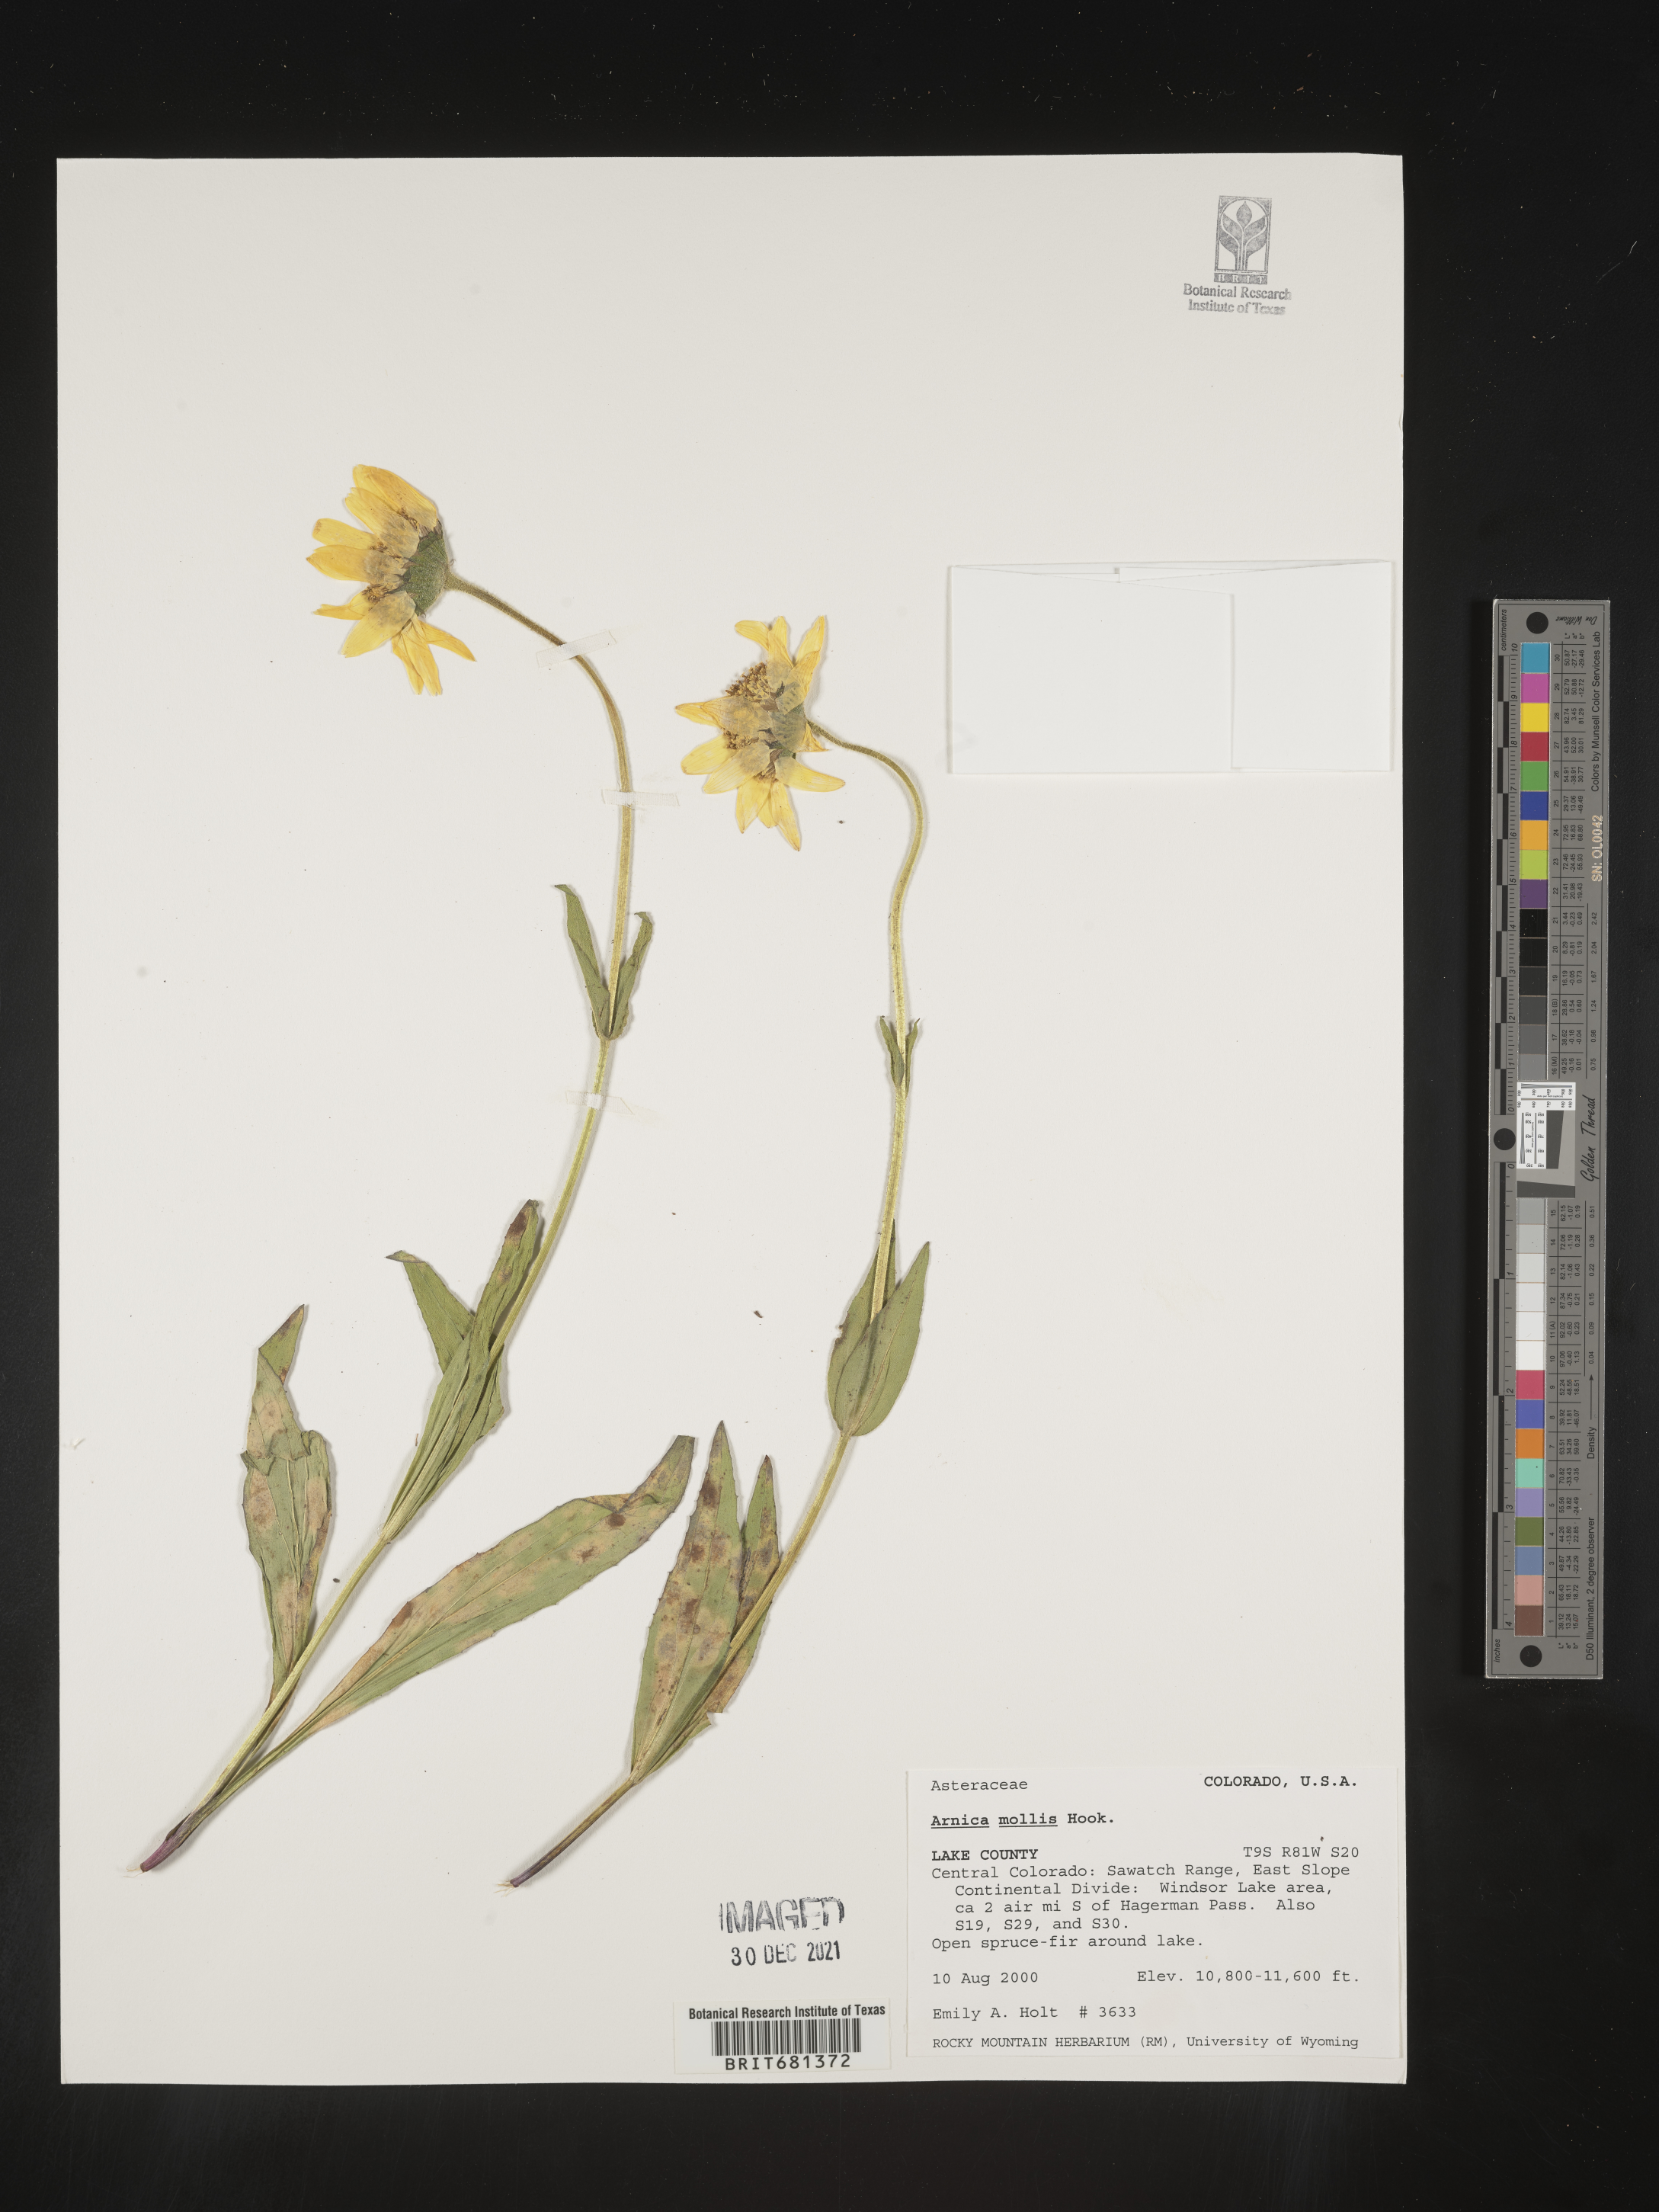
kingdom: Plantae
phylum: Tracheophyta
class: Magnoliopsida
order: Asterales
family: Asteraceae
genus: Arnica
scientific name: Arnica mollis
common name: Hairy arnica
